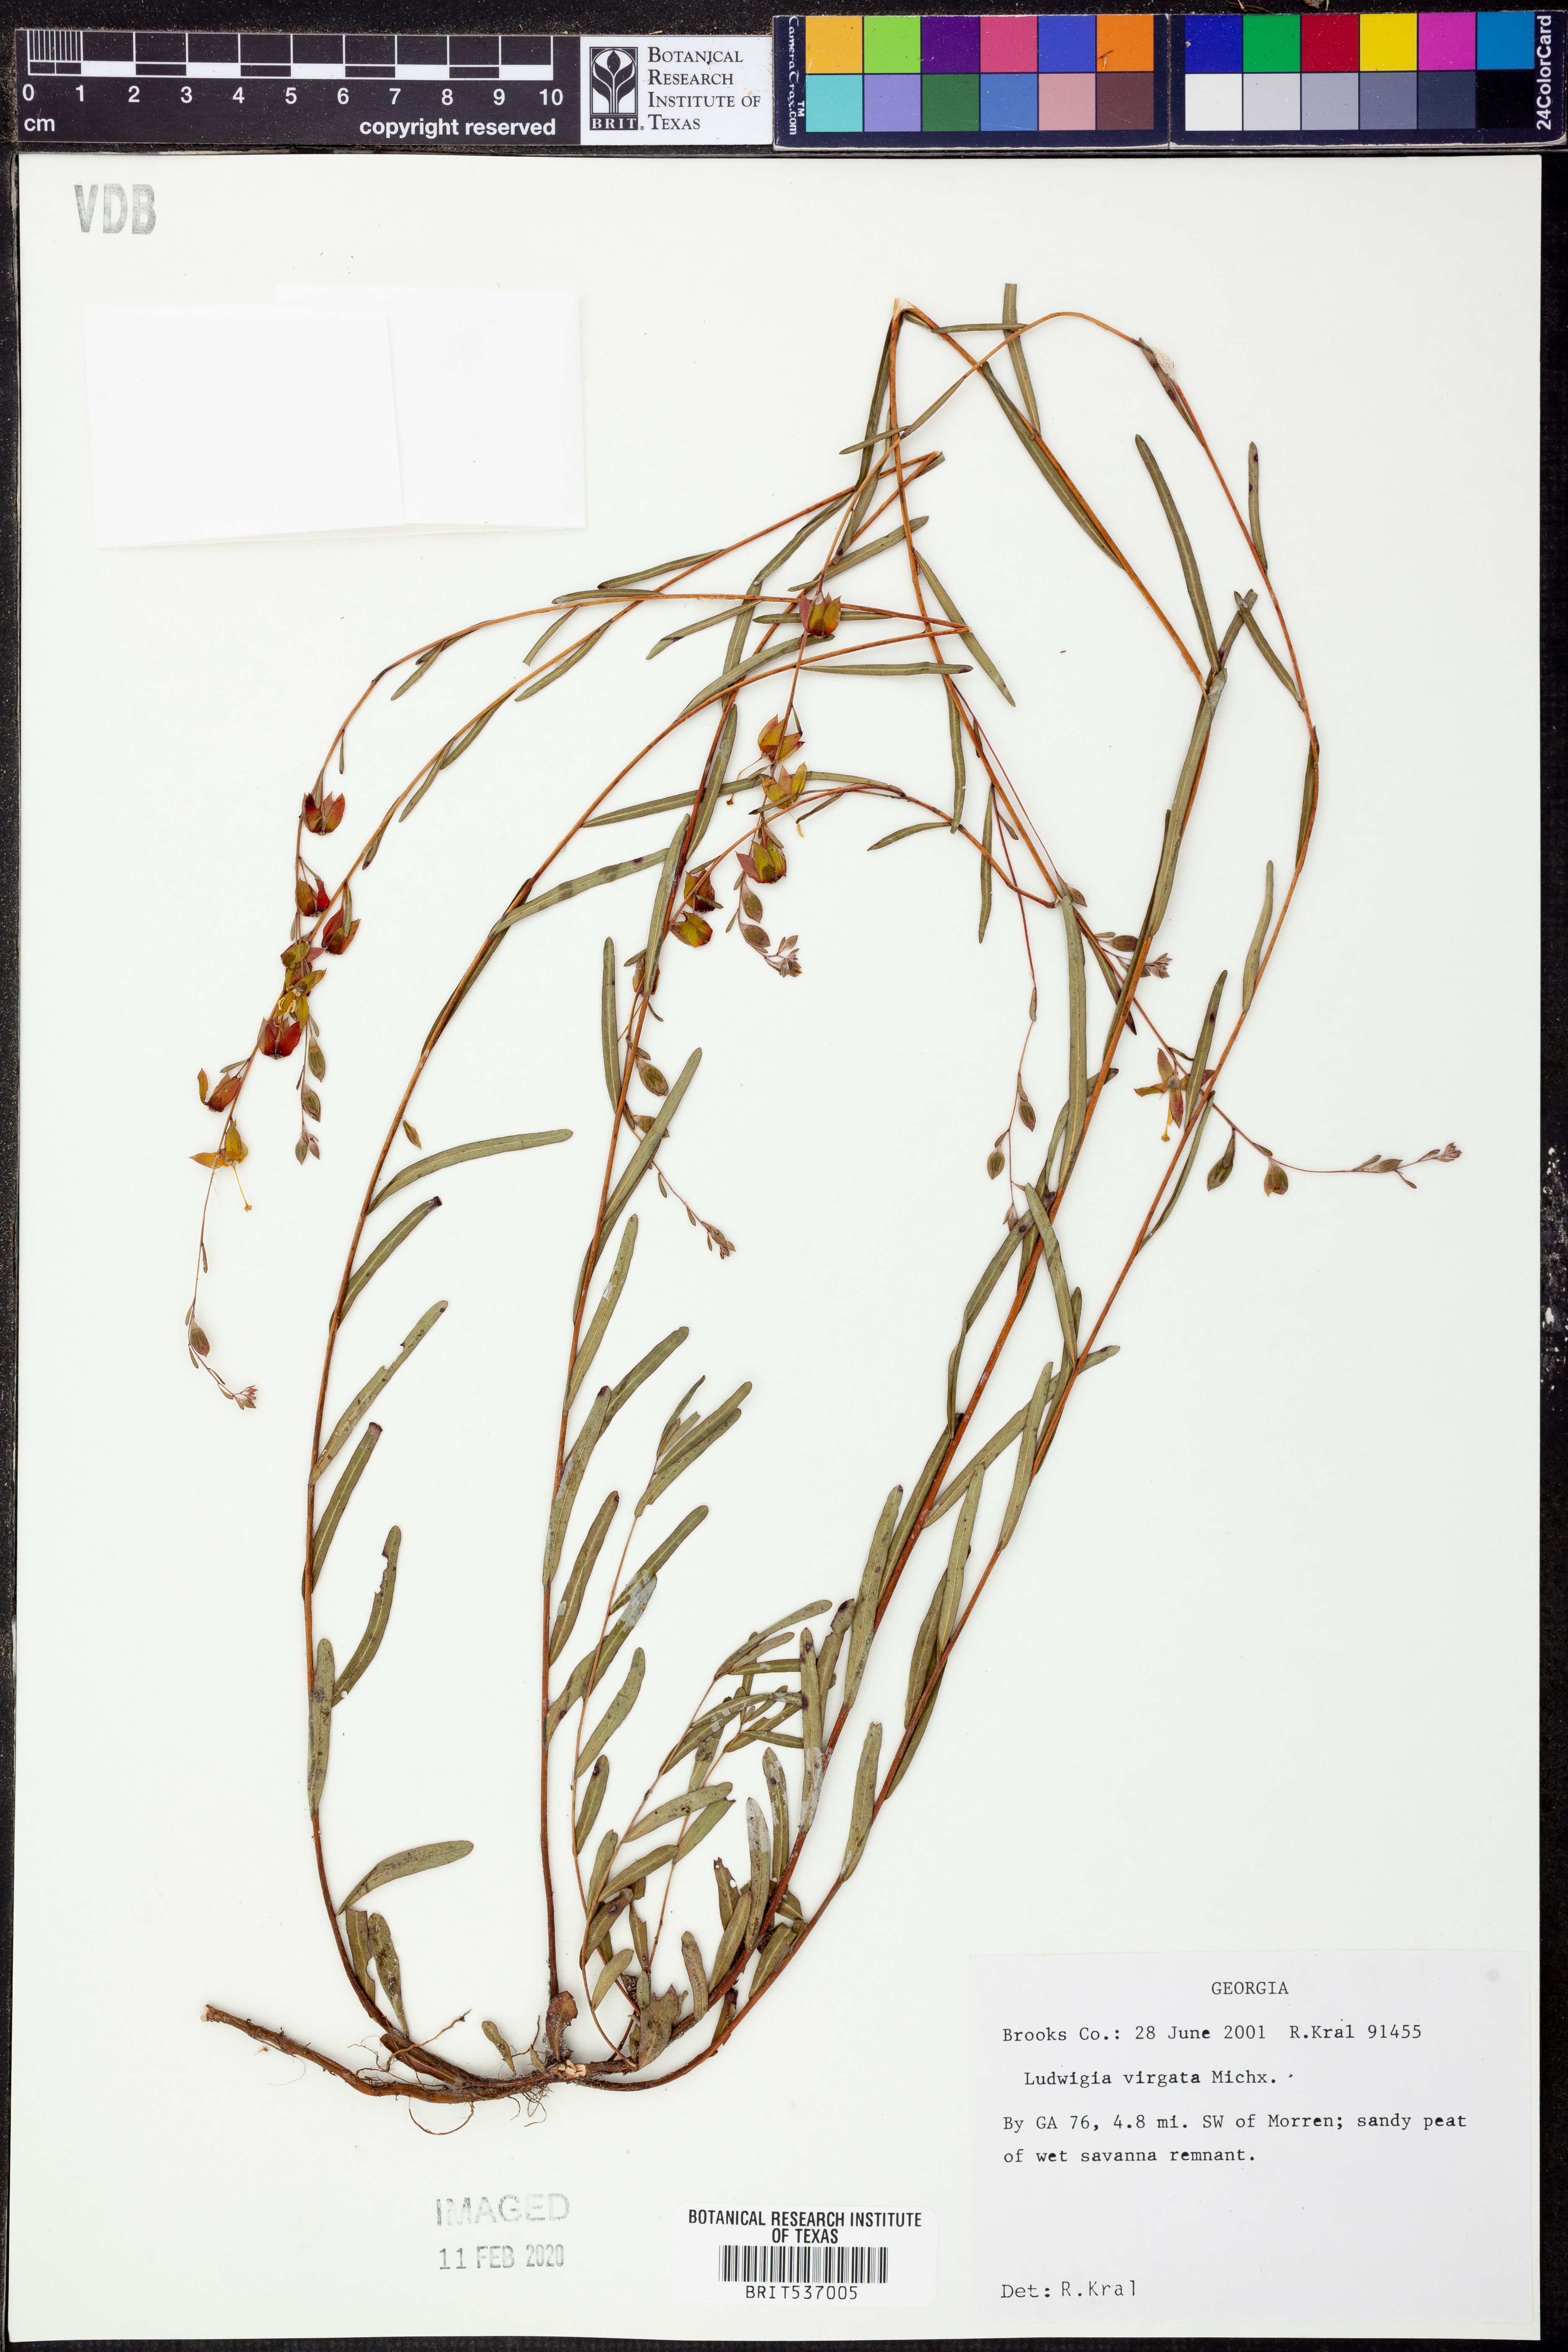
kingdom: Plantae
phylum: Tracheophyta
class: Magnoliopsida
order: Myrtales
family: Onagraceae
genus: Ludwigia
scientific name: Ludwigia virgata
